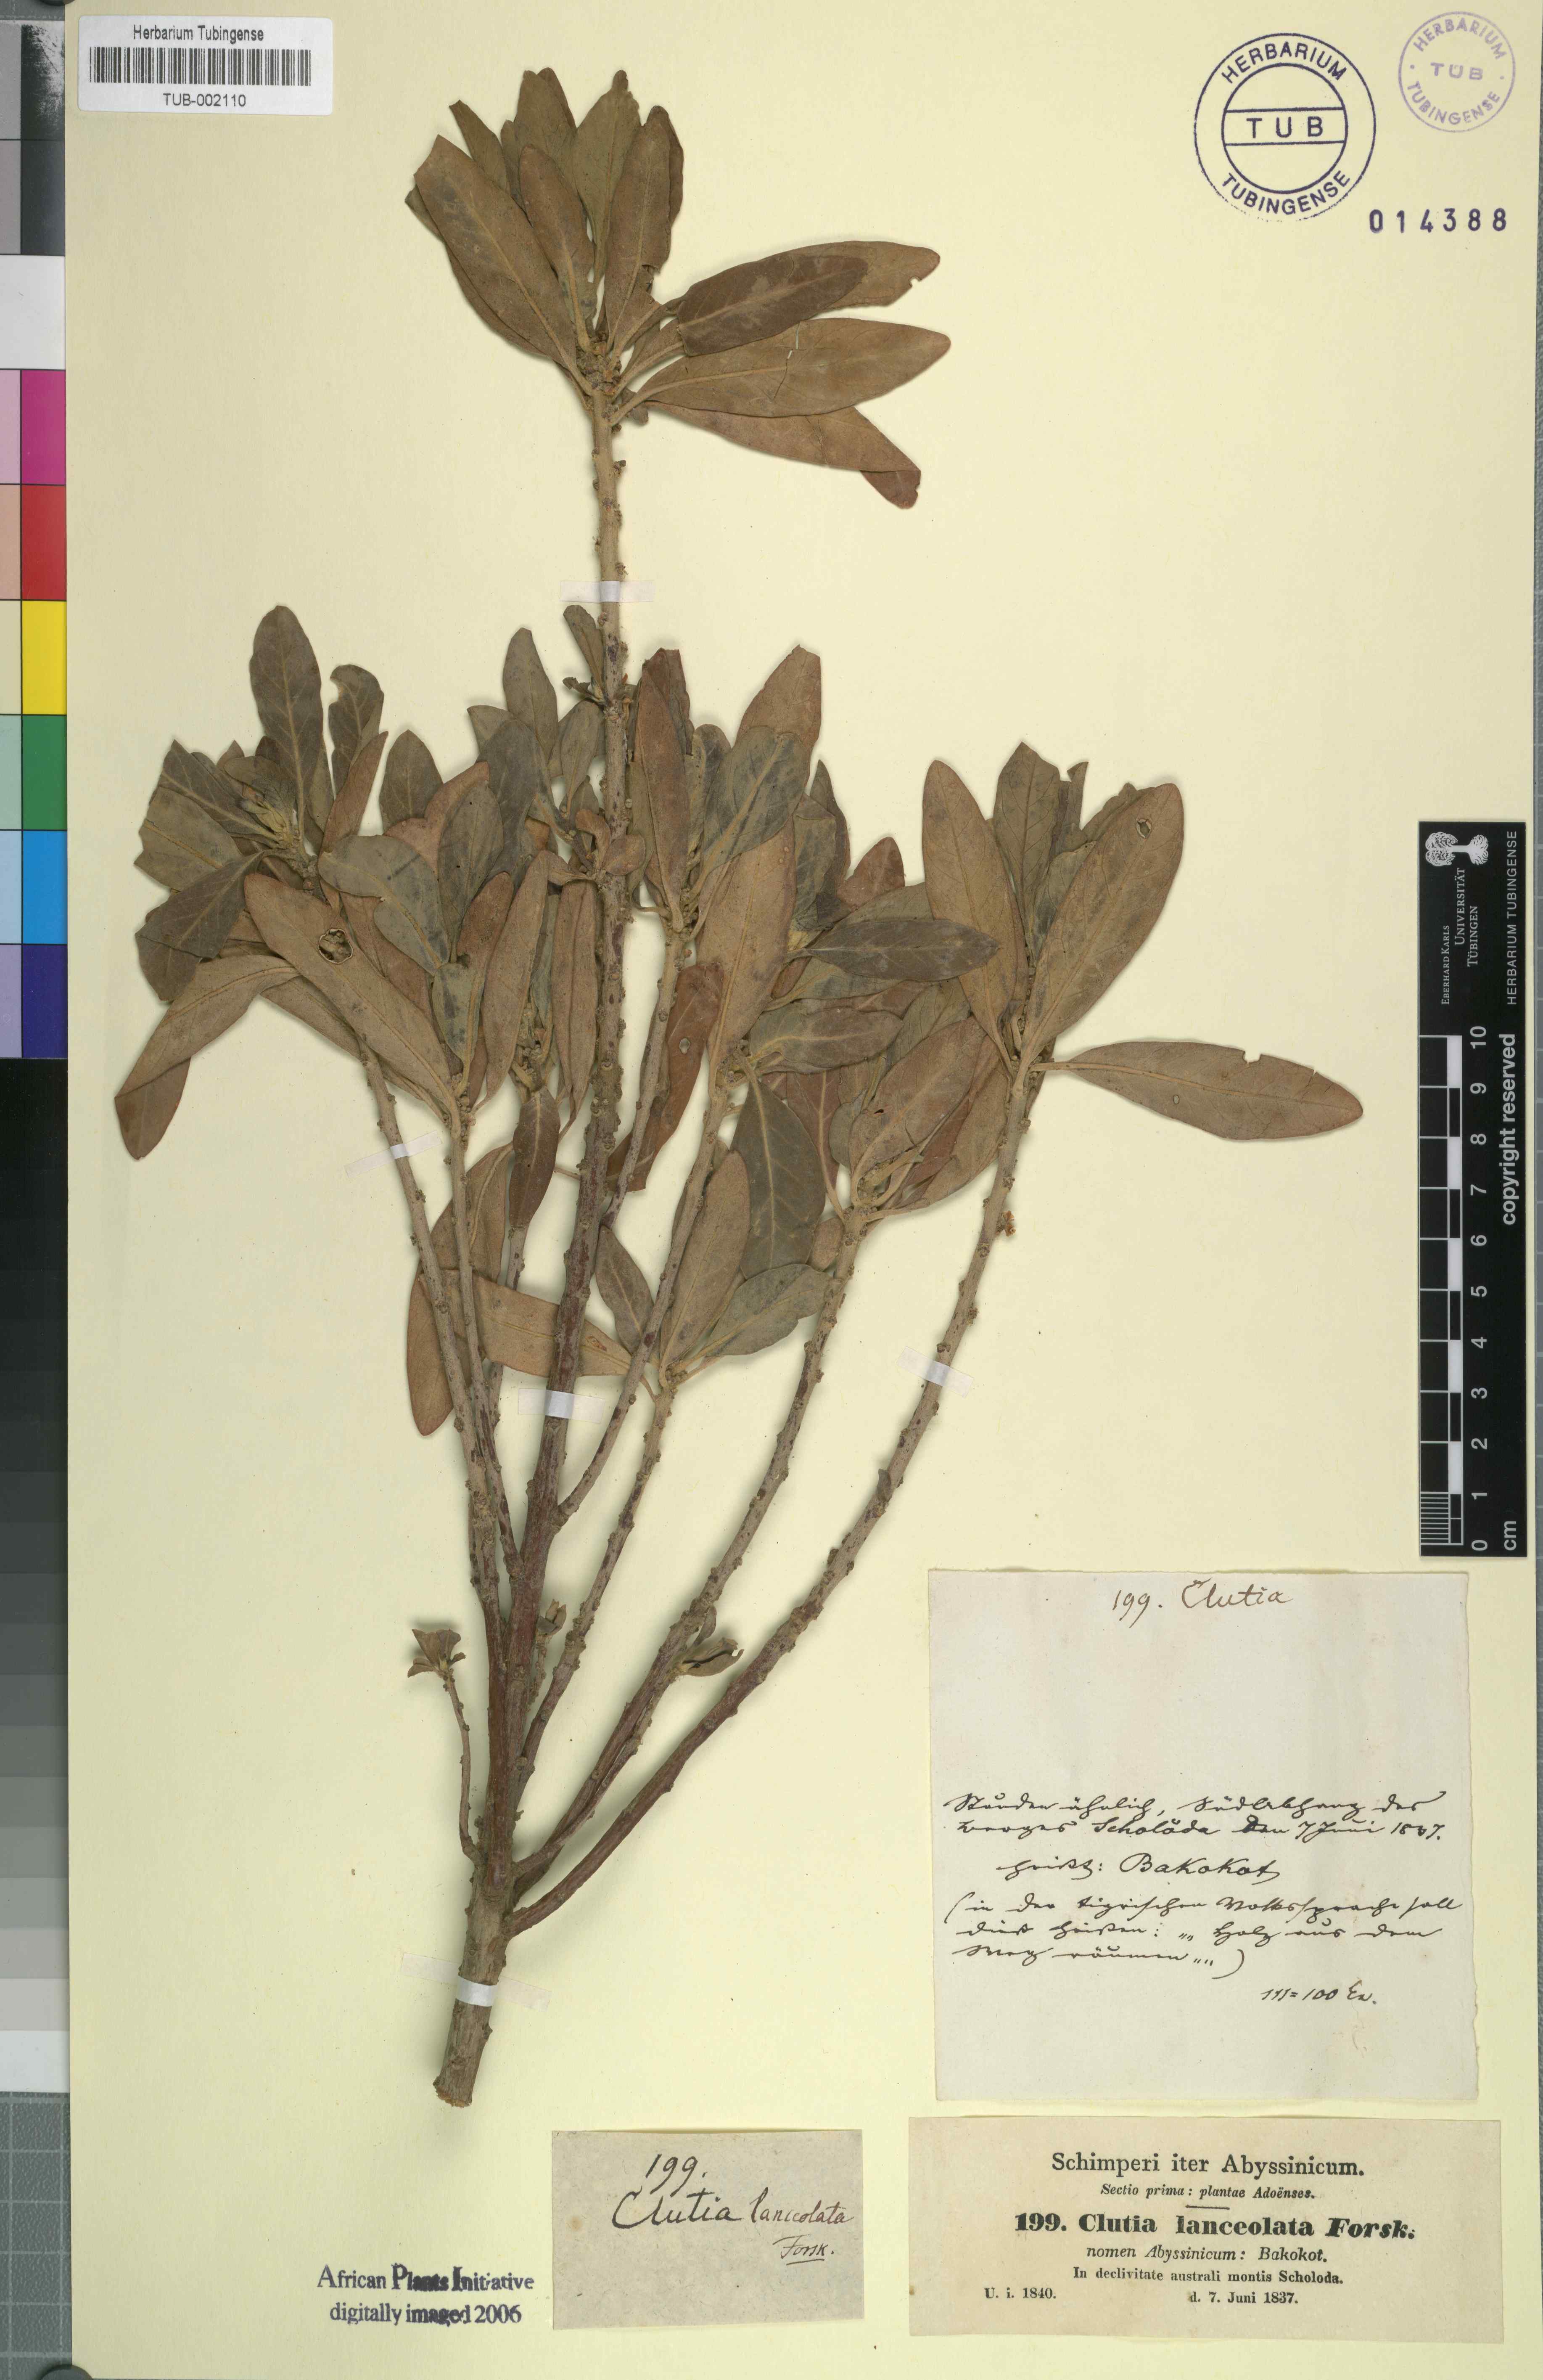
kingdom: Plantae
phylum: Tracheophyta
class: Magnoliopsida
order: Malpighiales
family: Peraceae
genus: Clutia
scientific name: Clutia lanceolata
